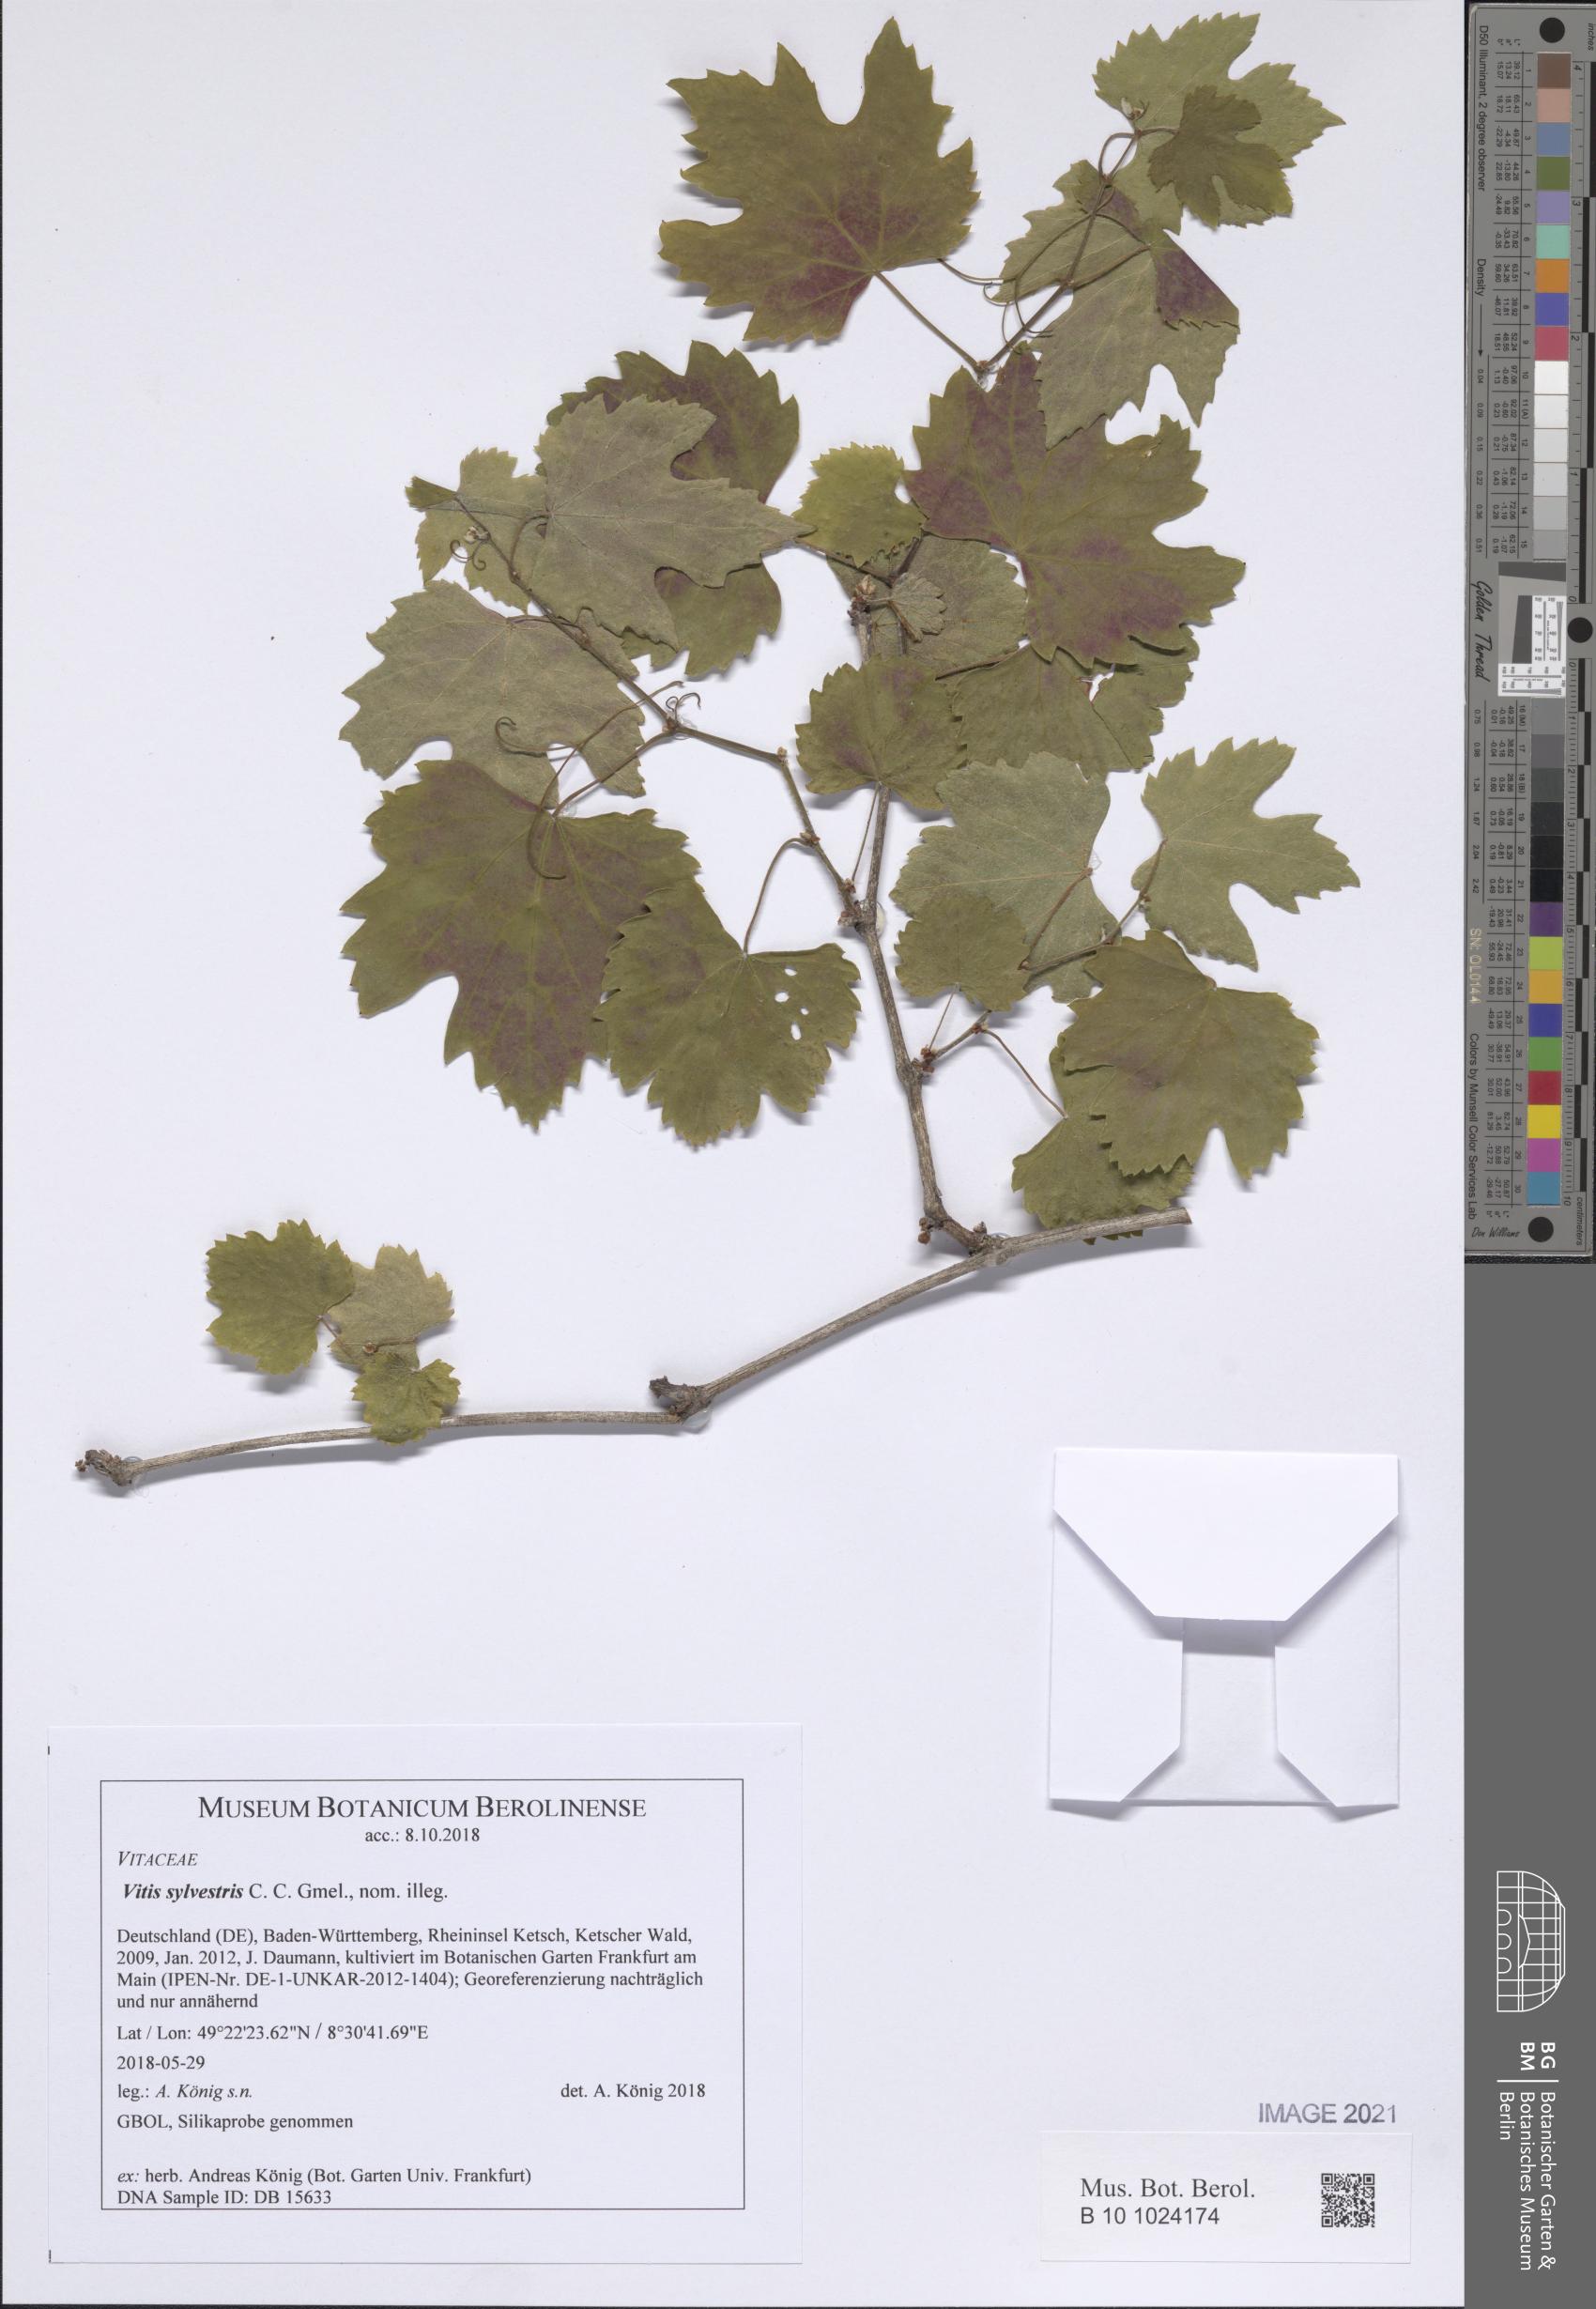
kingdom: Plantae
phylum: Tracheophyta
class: Magnoliopsida
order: Vitales
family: Vitaceae
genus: Vitis
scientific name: Vitis gmelinii
